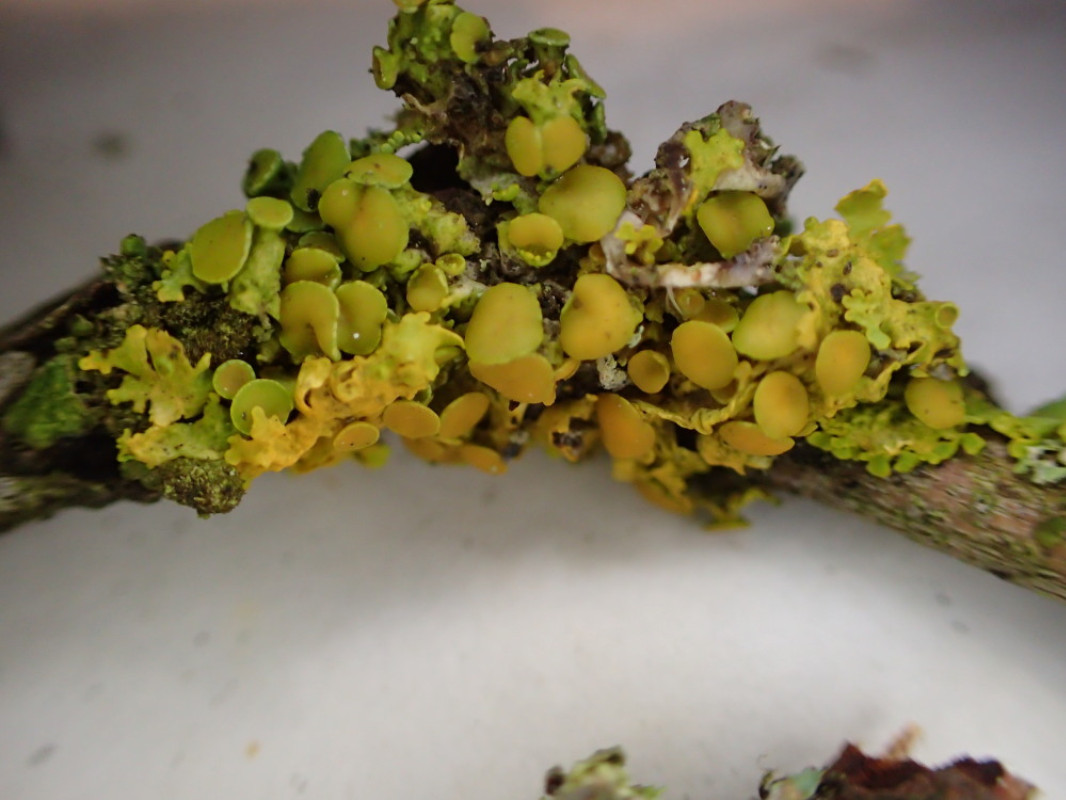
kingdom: Fungi
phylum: Ascomycota
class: Lecanoromycetes
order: Teloschistales
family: Teloschistaceae
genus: Polycauliona
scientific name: Polycauliona polycarpa
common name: mangefrugtet orangelav
